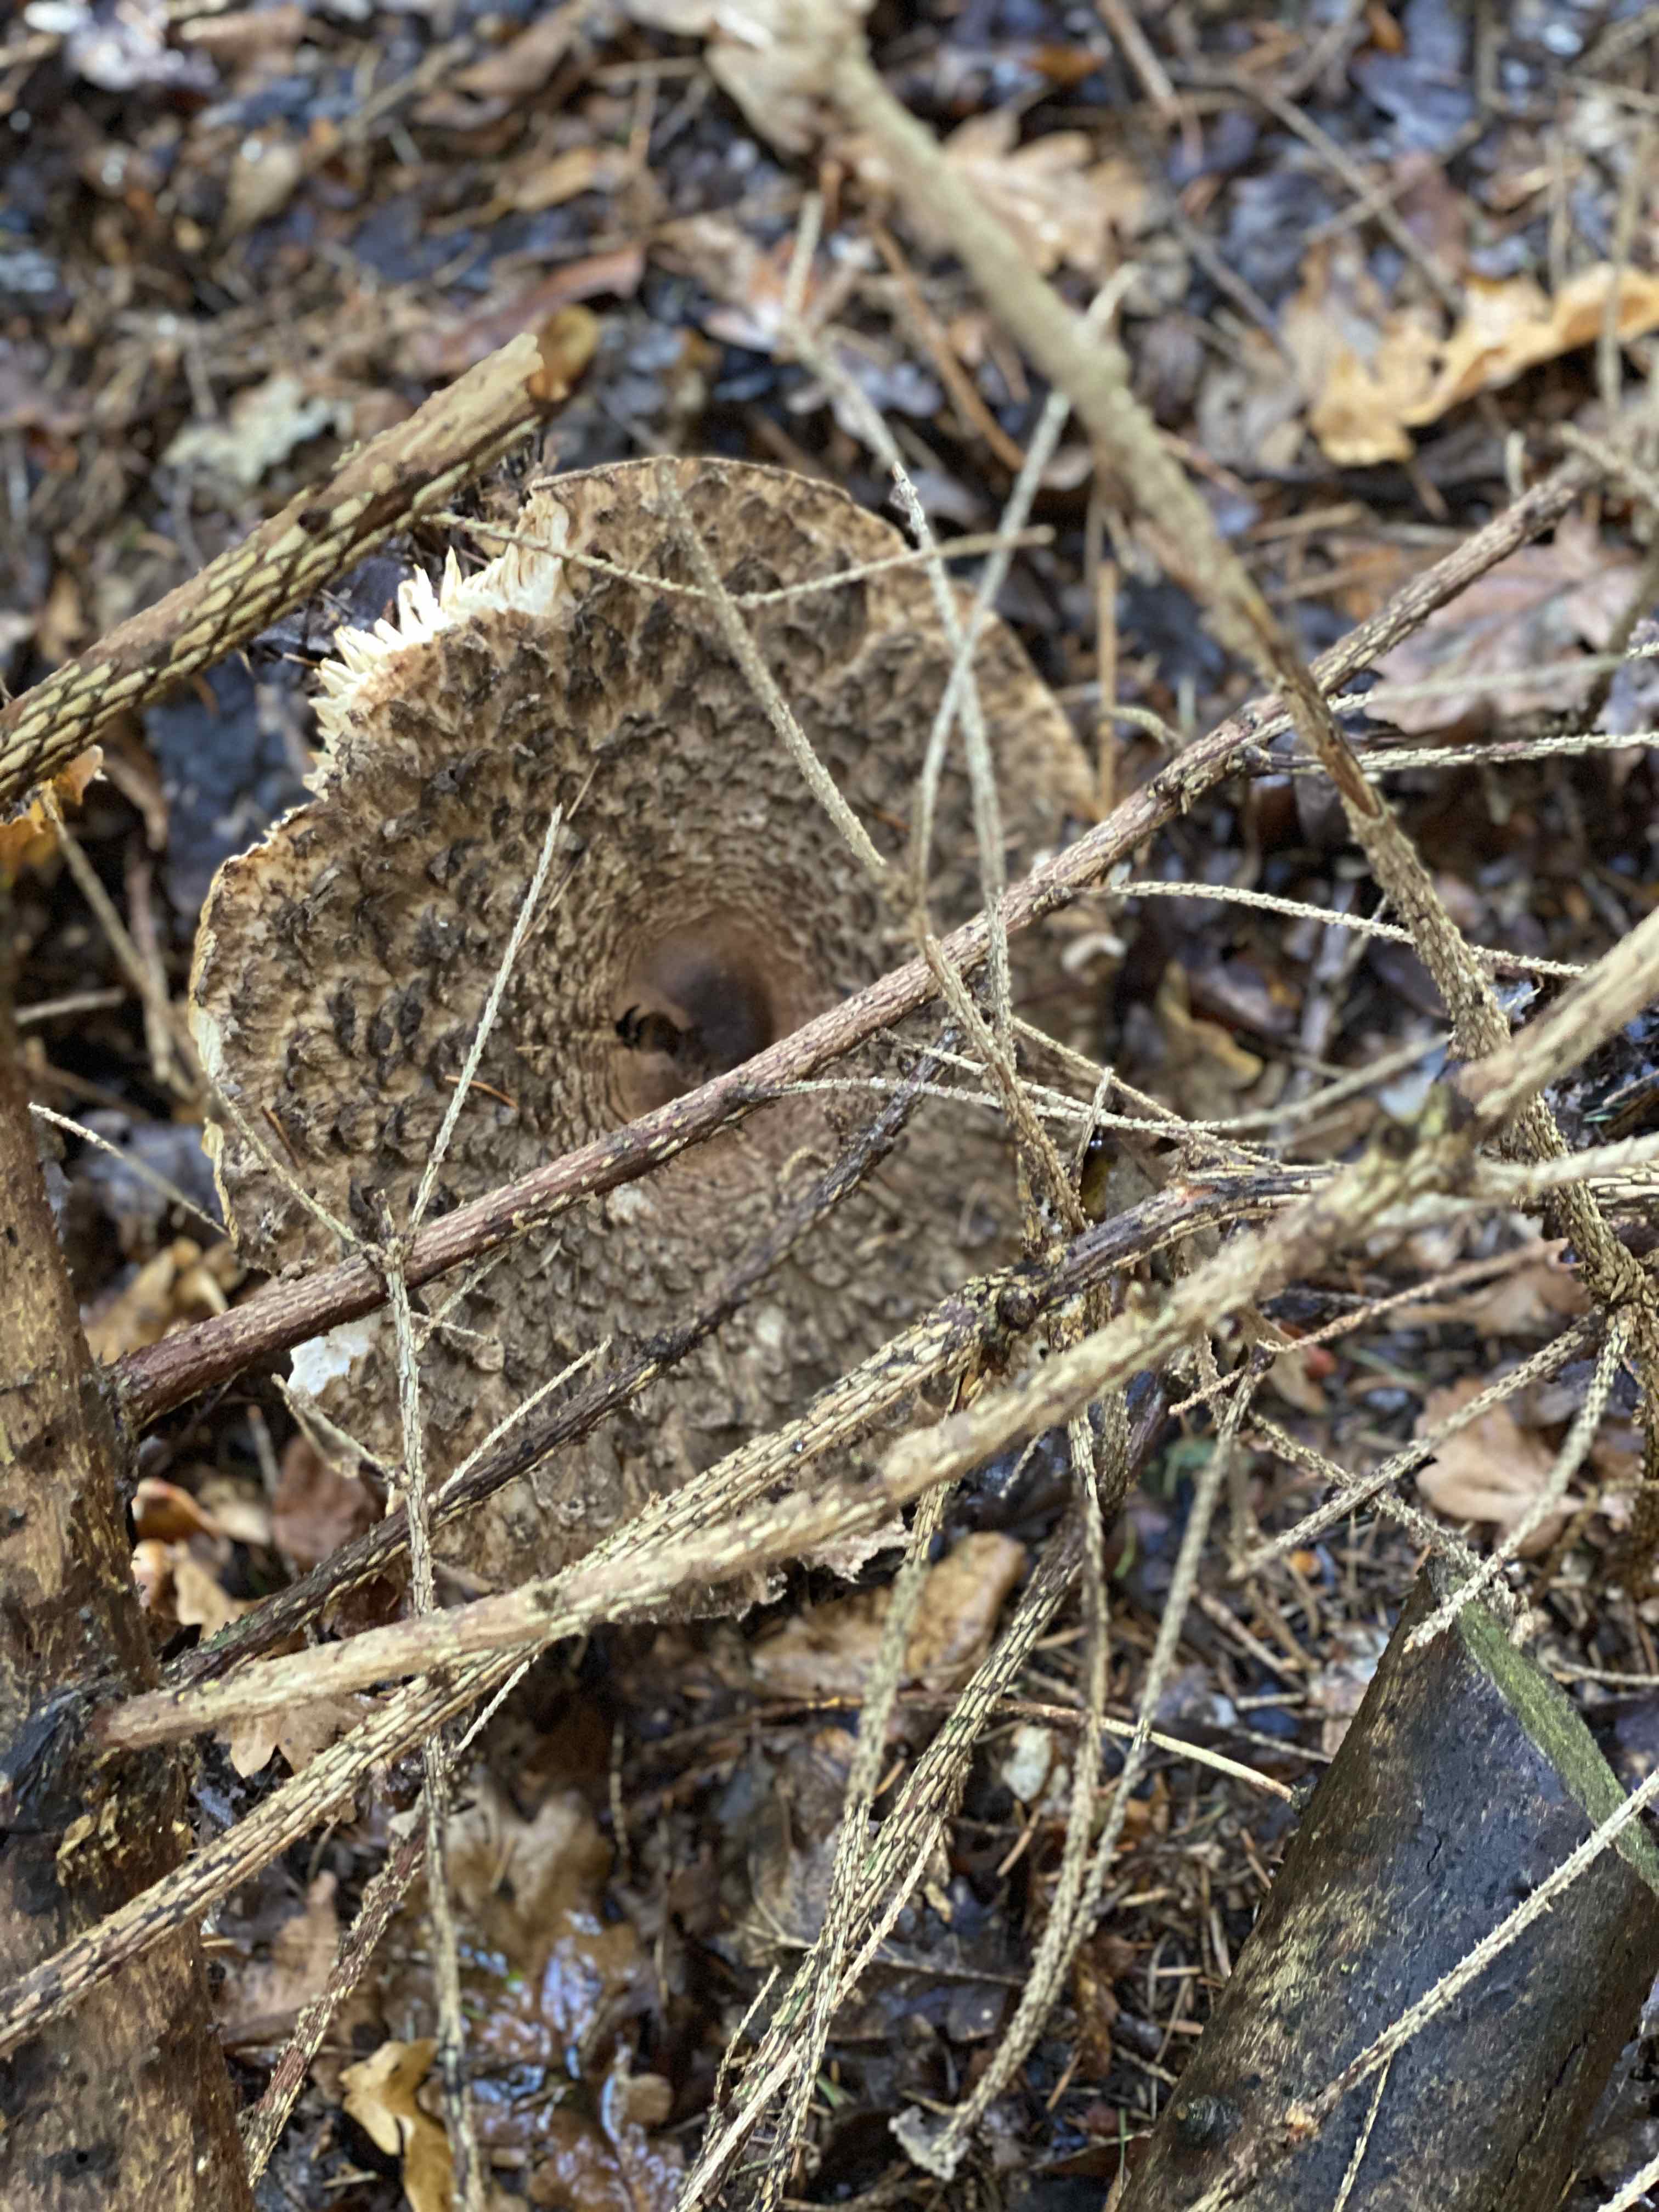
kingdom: Fungi
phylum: Basidiomycota
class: Agaricomycetes
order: Agaricales
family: Agaricaceae
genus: Chlorophyllum
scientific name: Chlorophyllum olivieri
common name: almindelig rabarberhat
